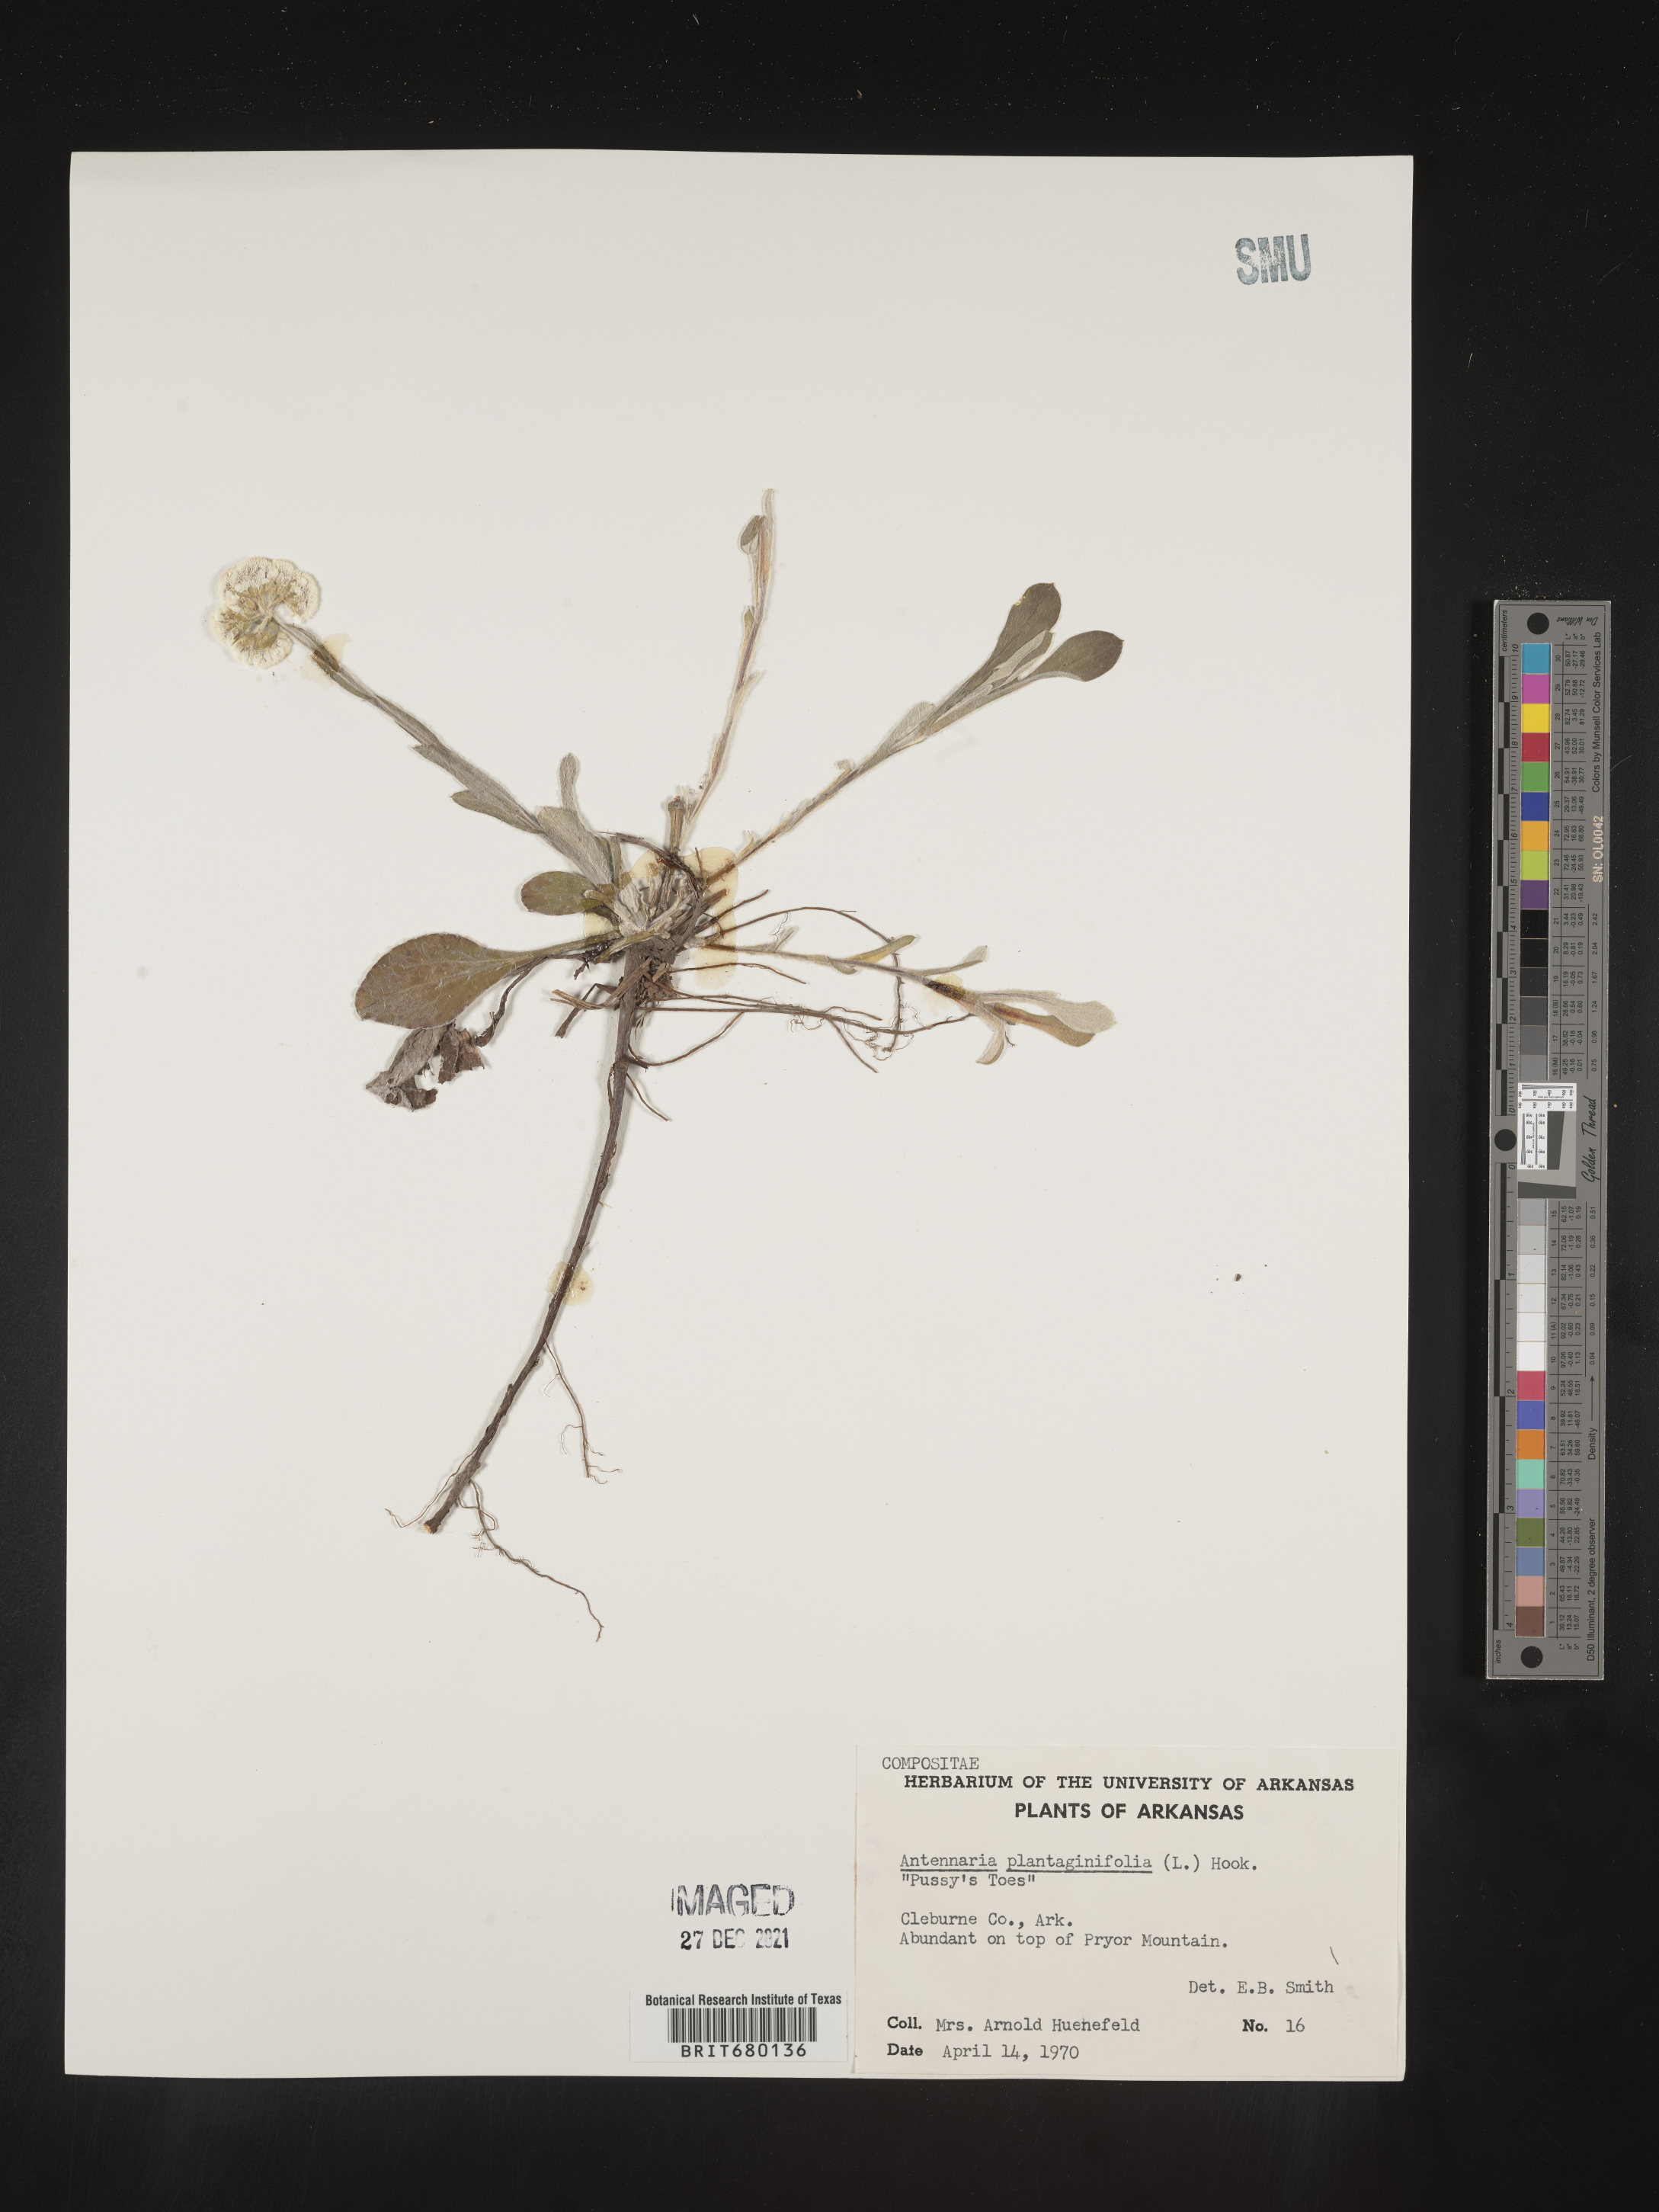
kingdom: Plantae
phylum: Tracheophyta
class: Magnoliopsida
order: Asterales
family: Asteraceae
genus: Antennaria
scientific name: Antennaria plantaginifolia
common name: Plantain-leaved pussytoes
